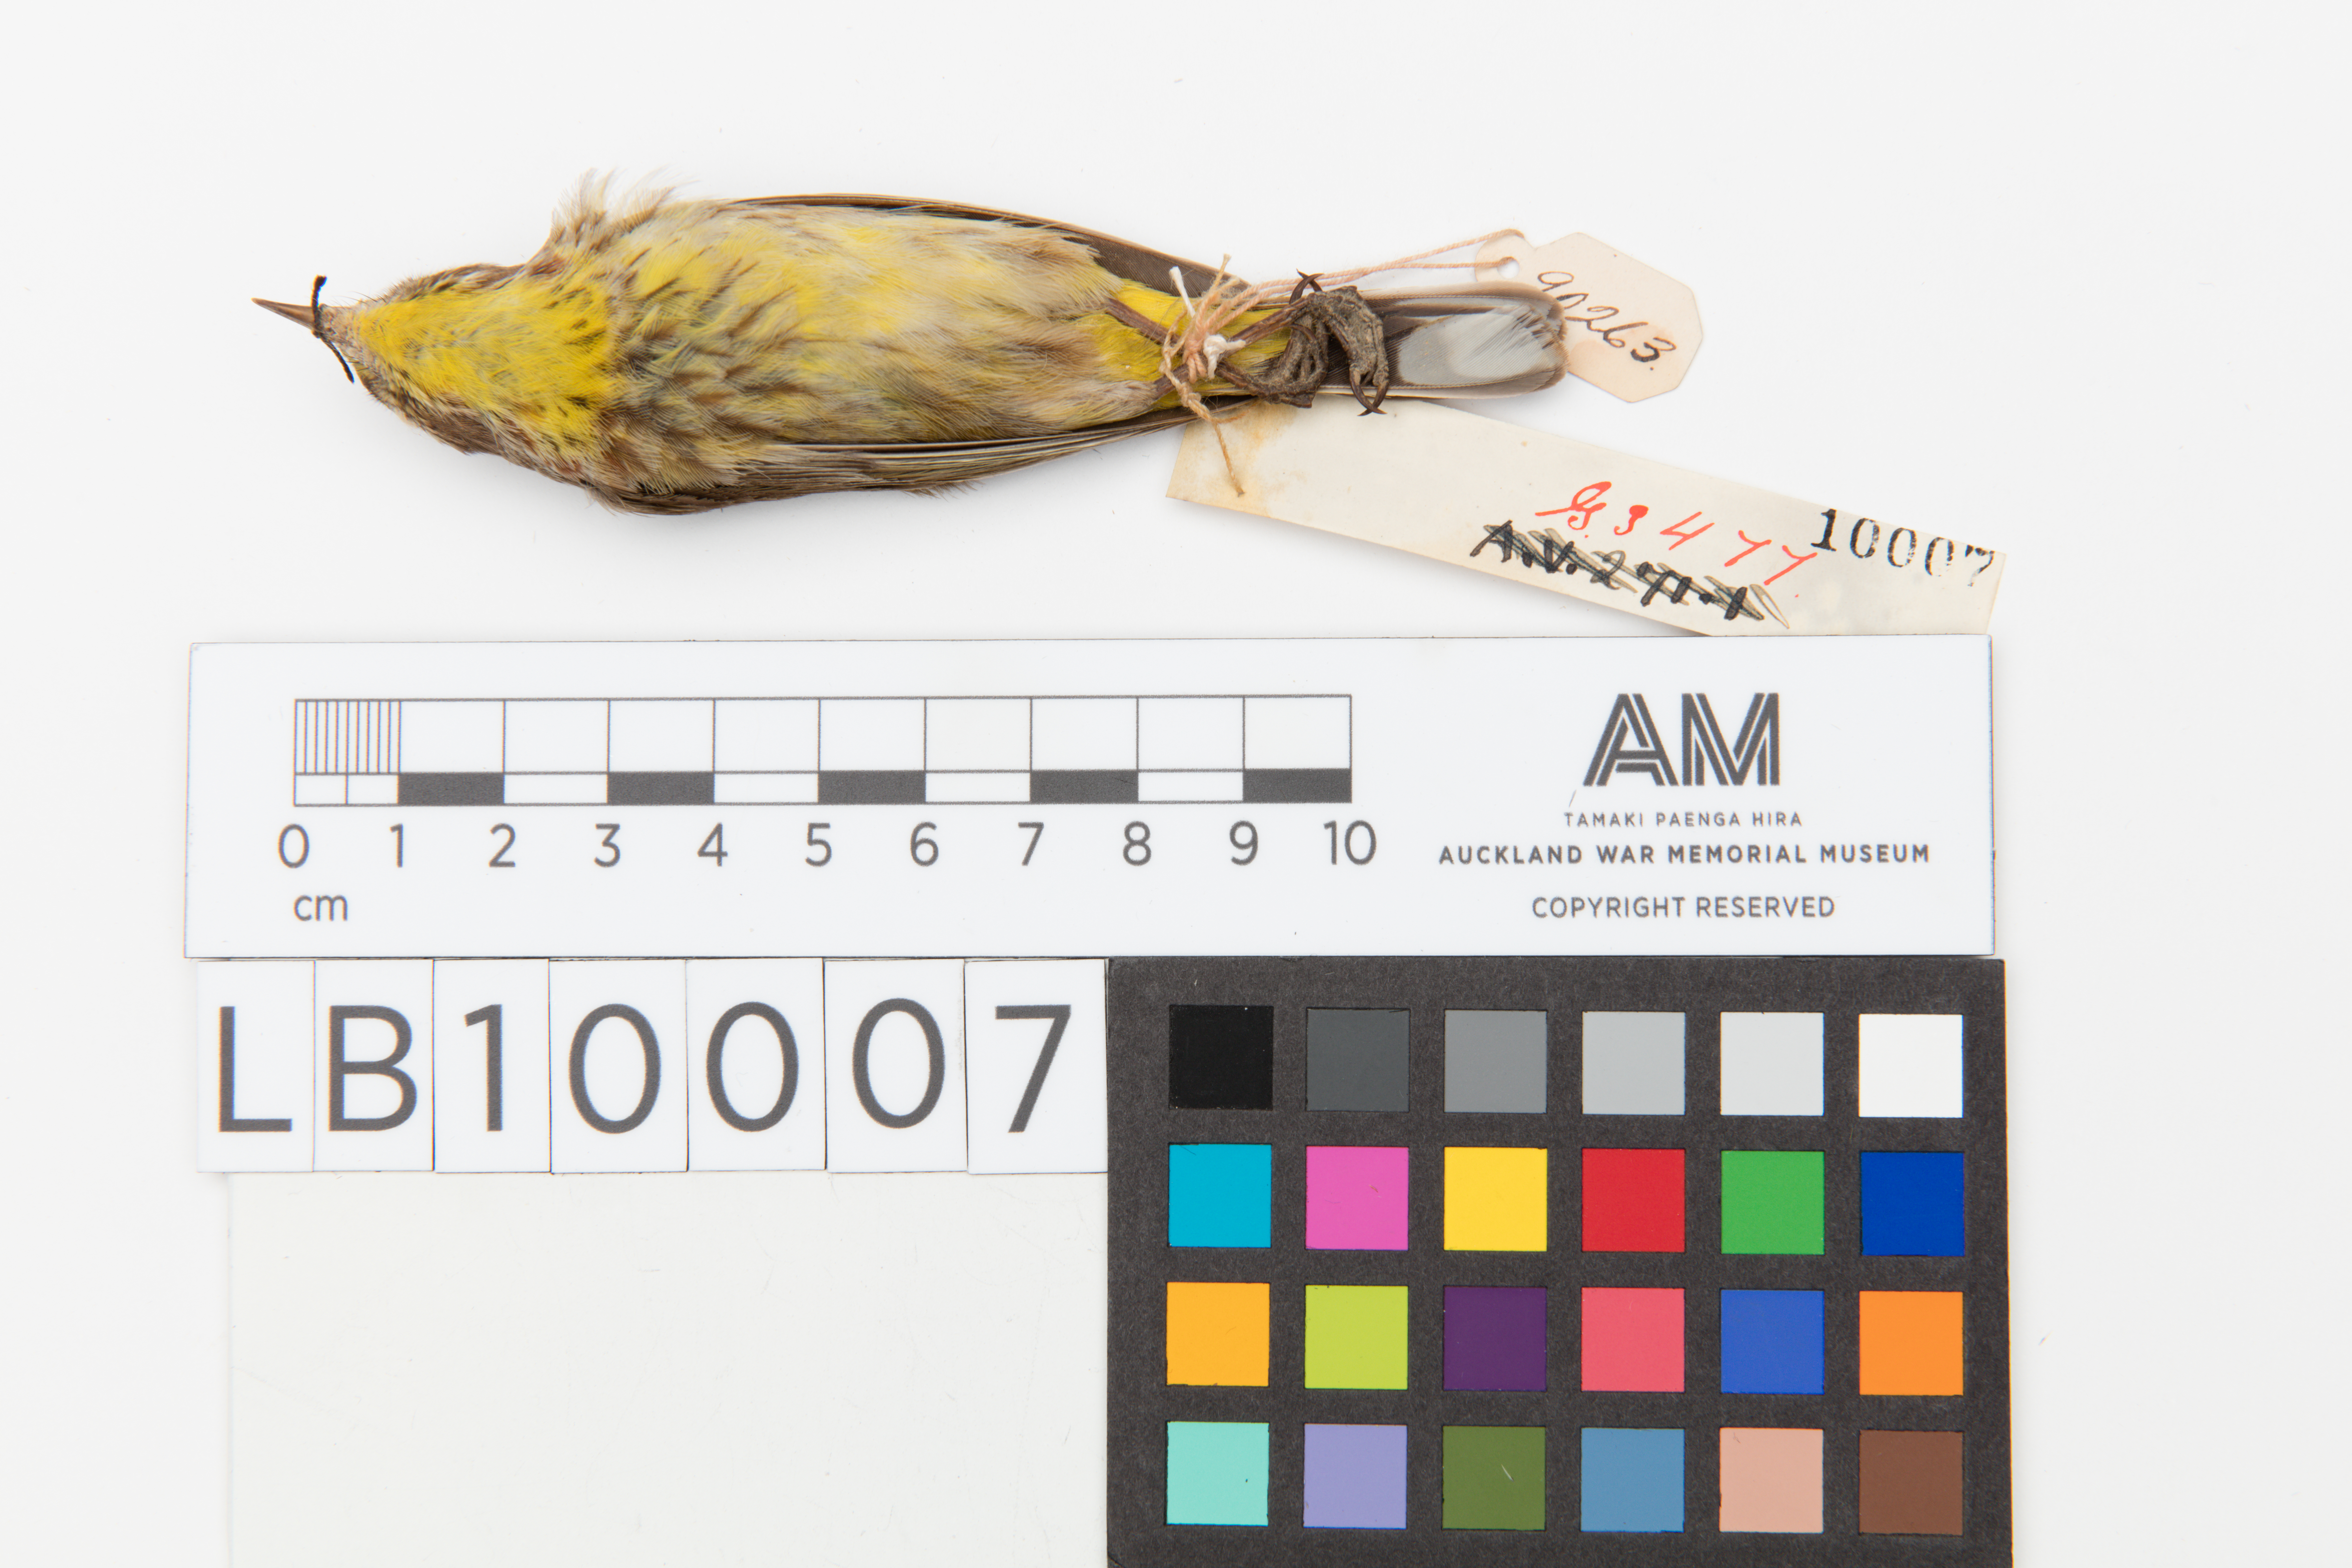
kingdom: Animalia
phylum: Chordata
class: Aves
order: Passeriformes
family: Parulidae
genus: Setophaga
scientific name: Setophaga palmarum
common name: Palm warbler
